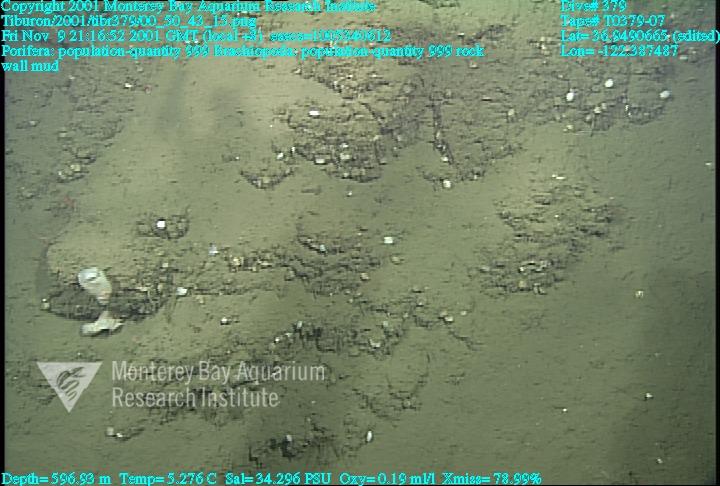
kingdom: Animalia
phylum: Porifera
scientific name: Porifera
